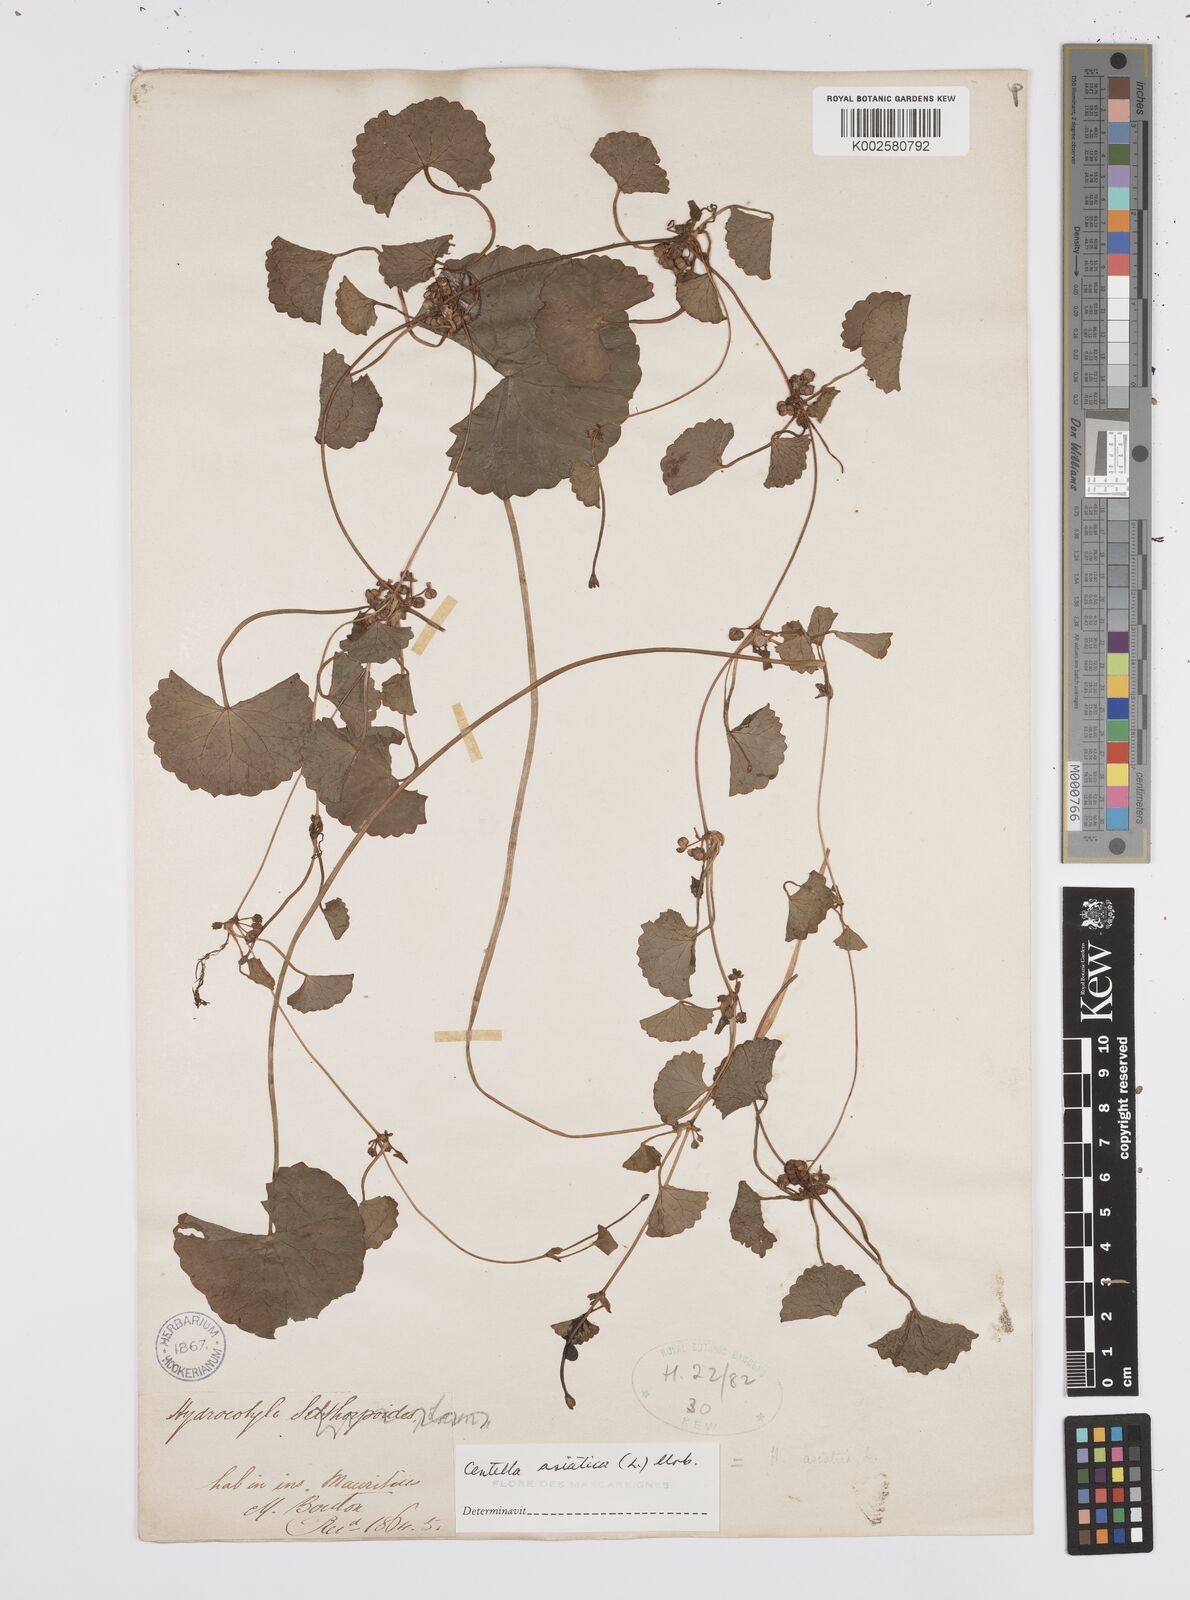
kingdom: Plantae
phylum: Tracheophyta
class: Magnoliopsida
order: Apiales
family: Apiaceae
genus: Centella
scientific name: Centella asiatica
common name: Spadeleaf
